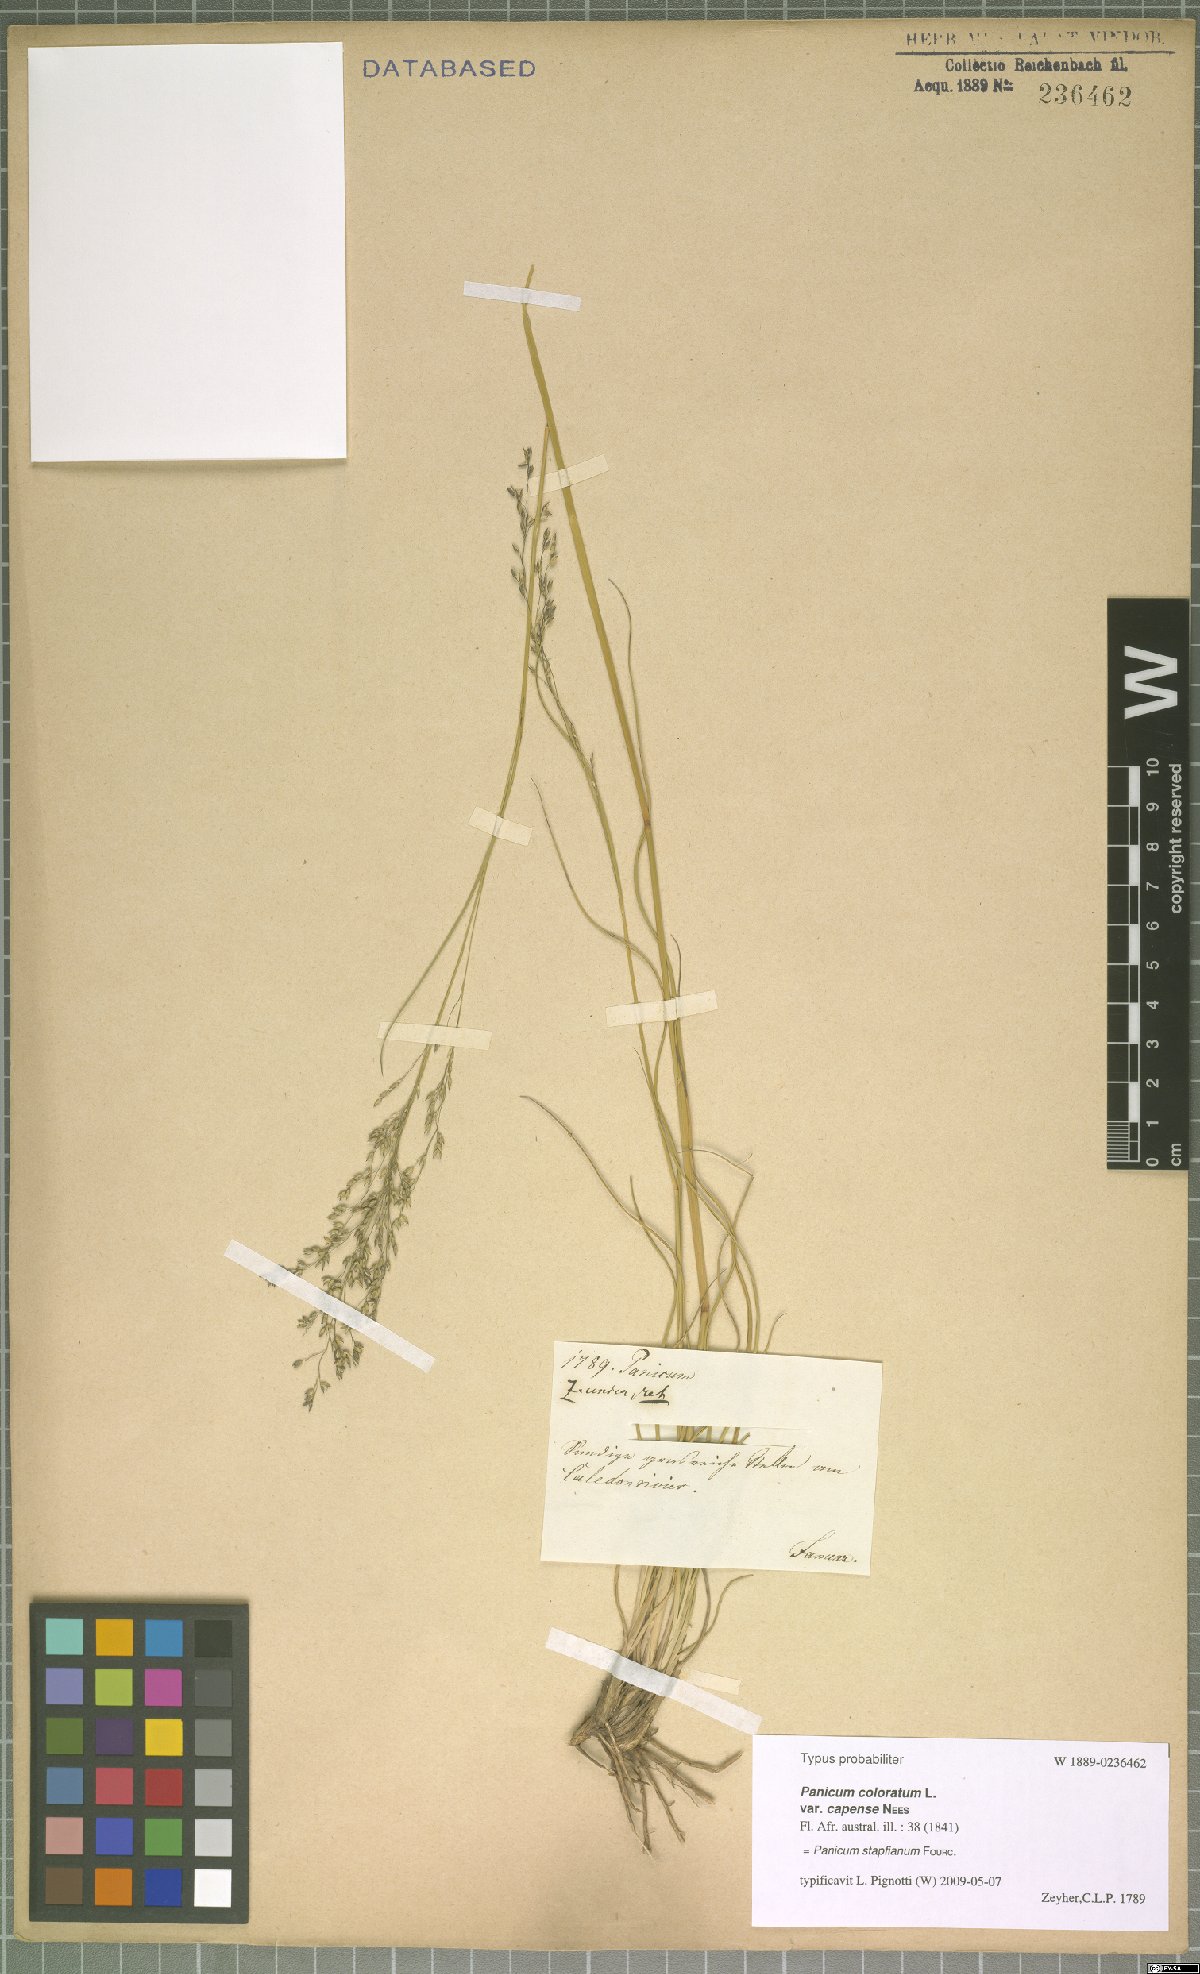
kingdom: Plantae
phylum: Tracheophyta
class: Liliopsida
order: Poales
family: Poaceae
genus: Panicum
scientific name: Panicum stapfianum
